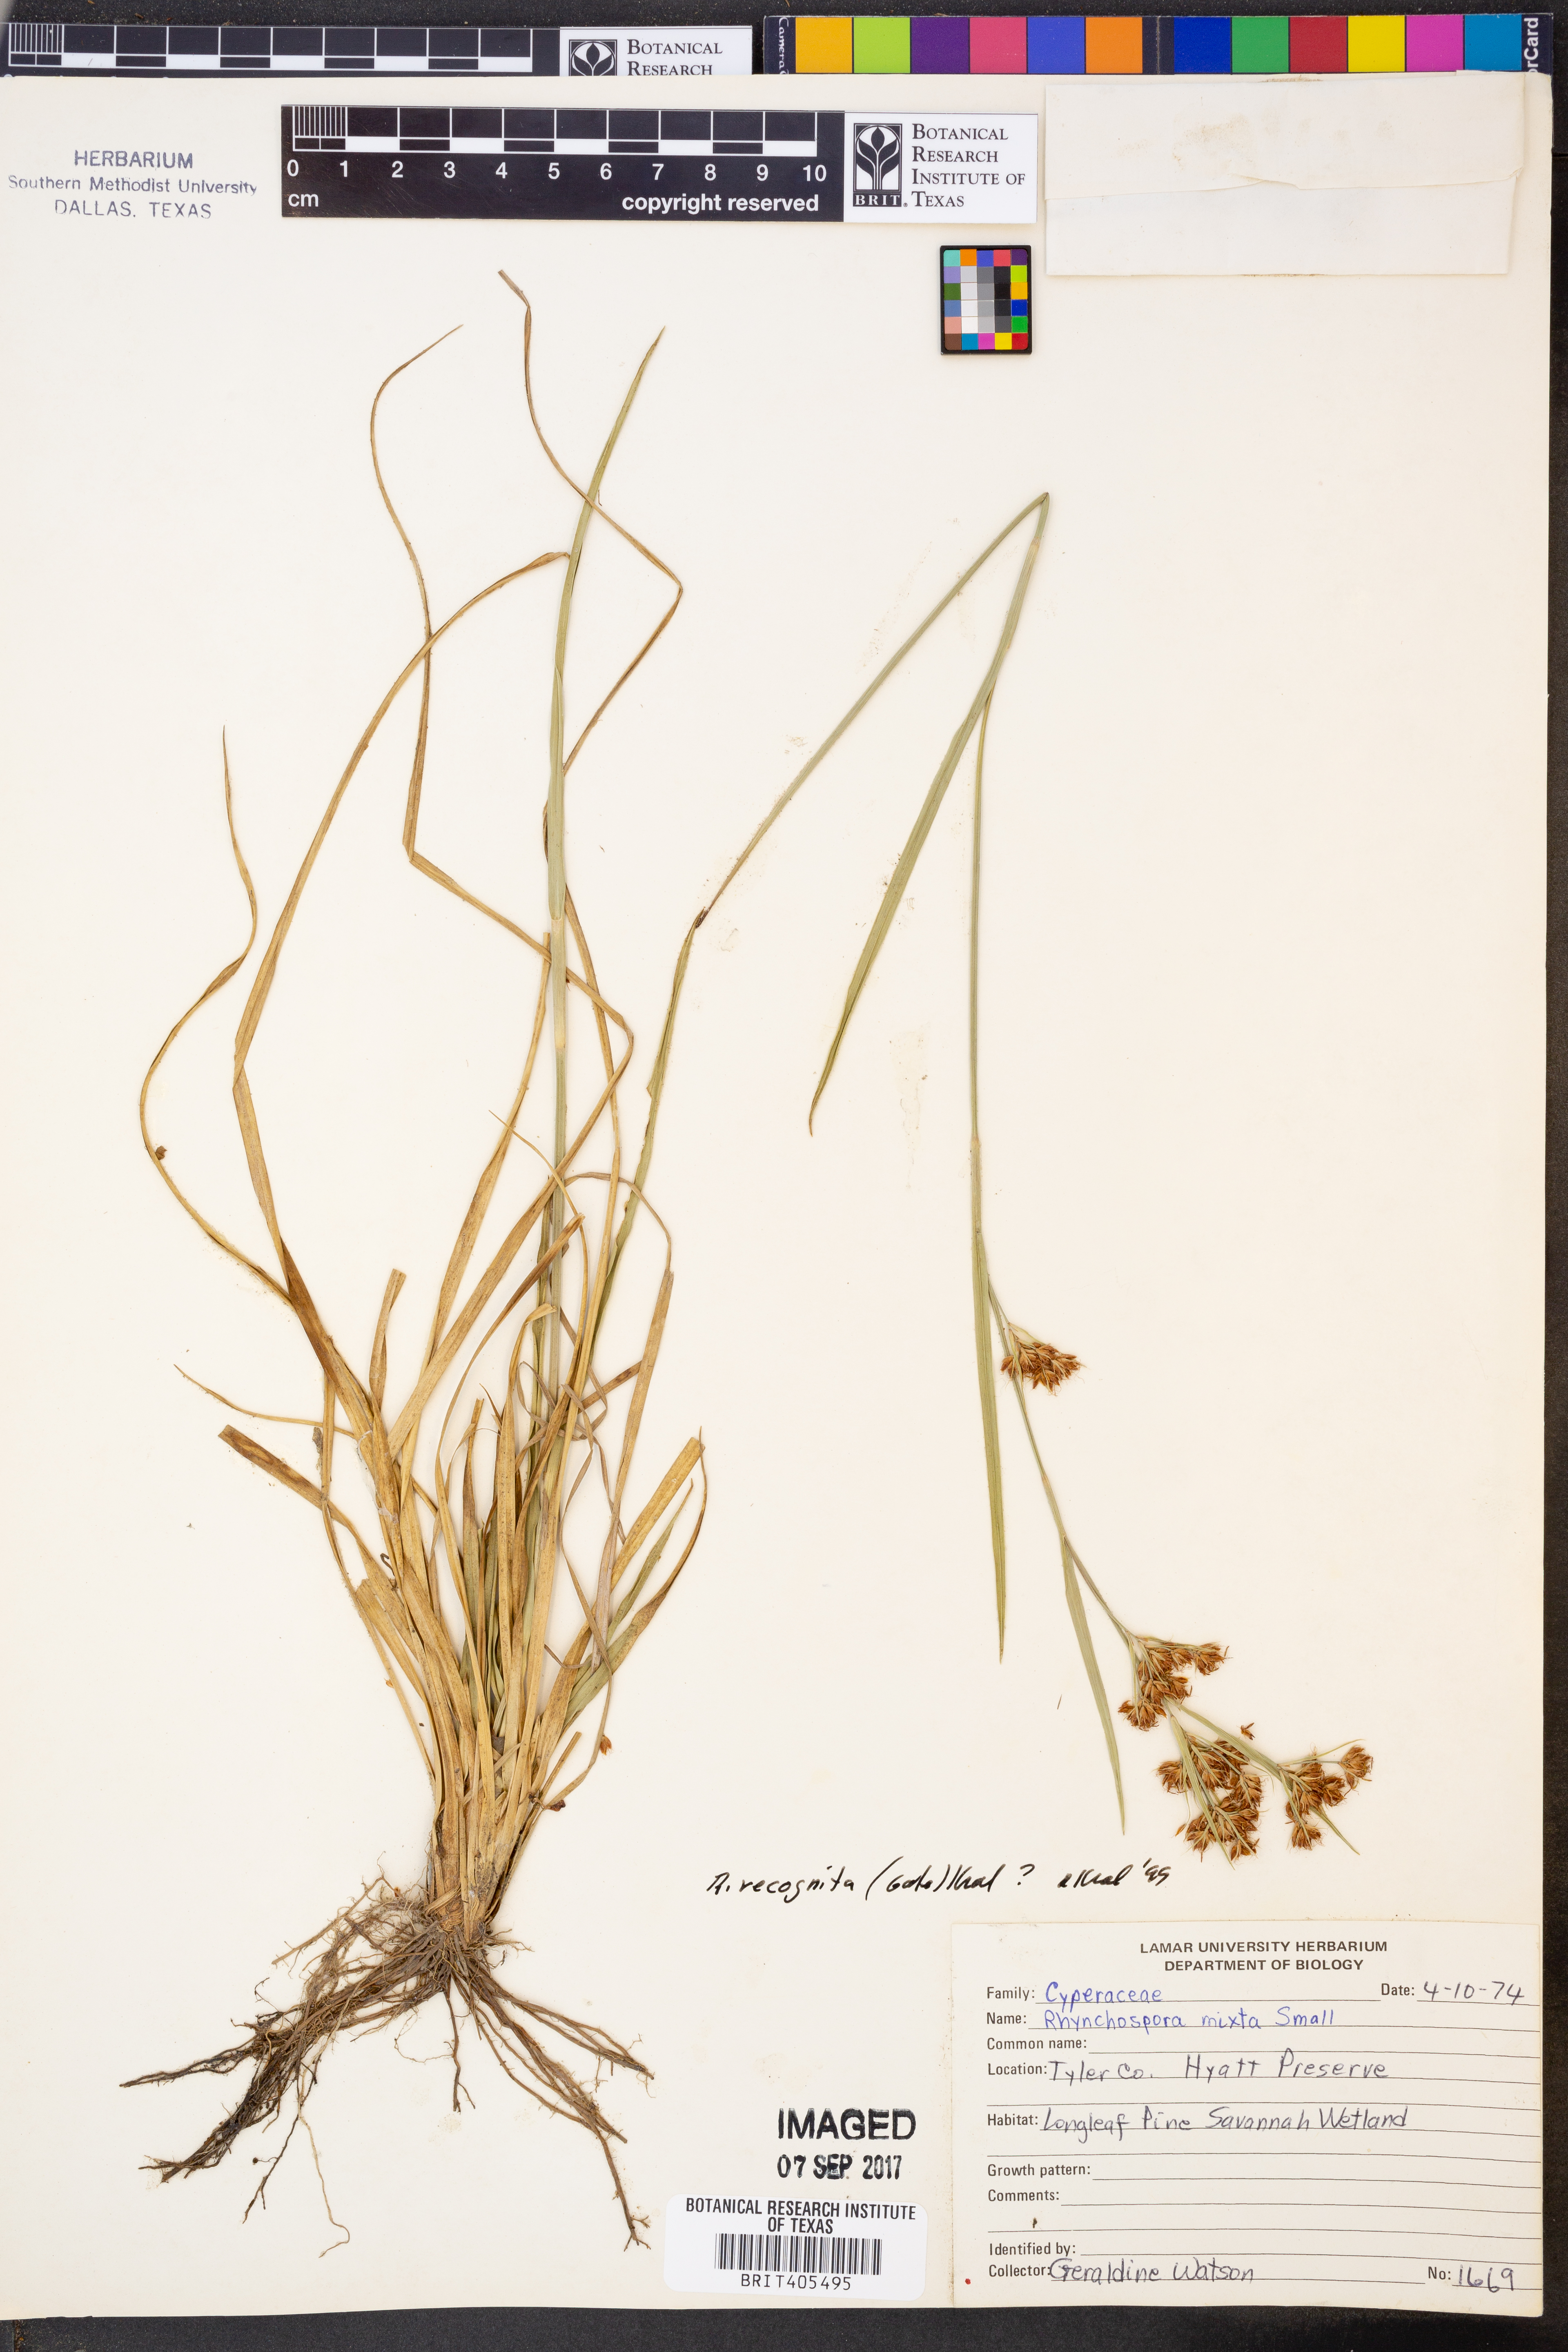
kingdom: Plantae
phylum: Tracheophyta
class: Liliopsida
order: Poales
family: Cyperaceae
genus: Rhynchospora
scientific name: Rhynchospora recognita
